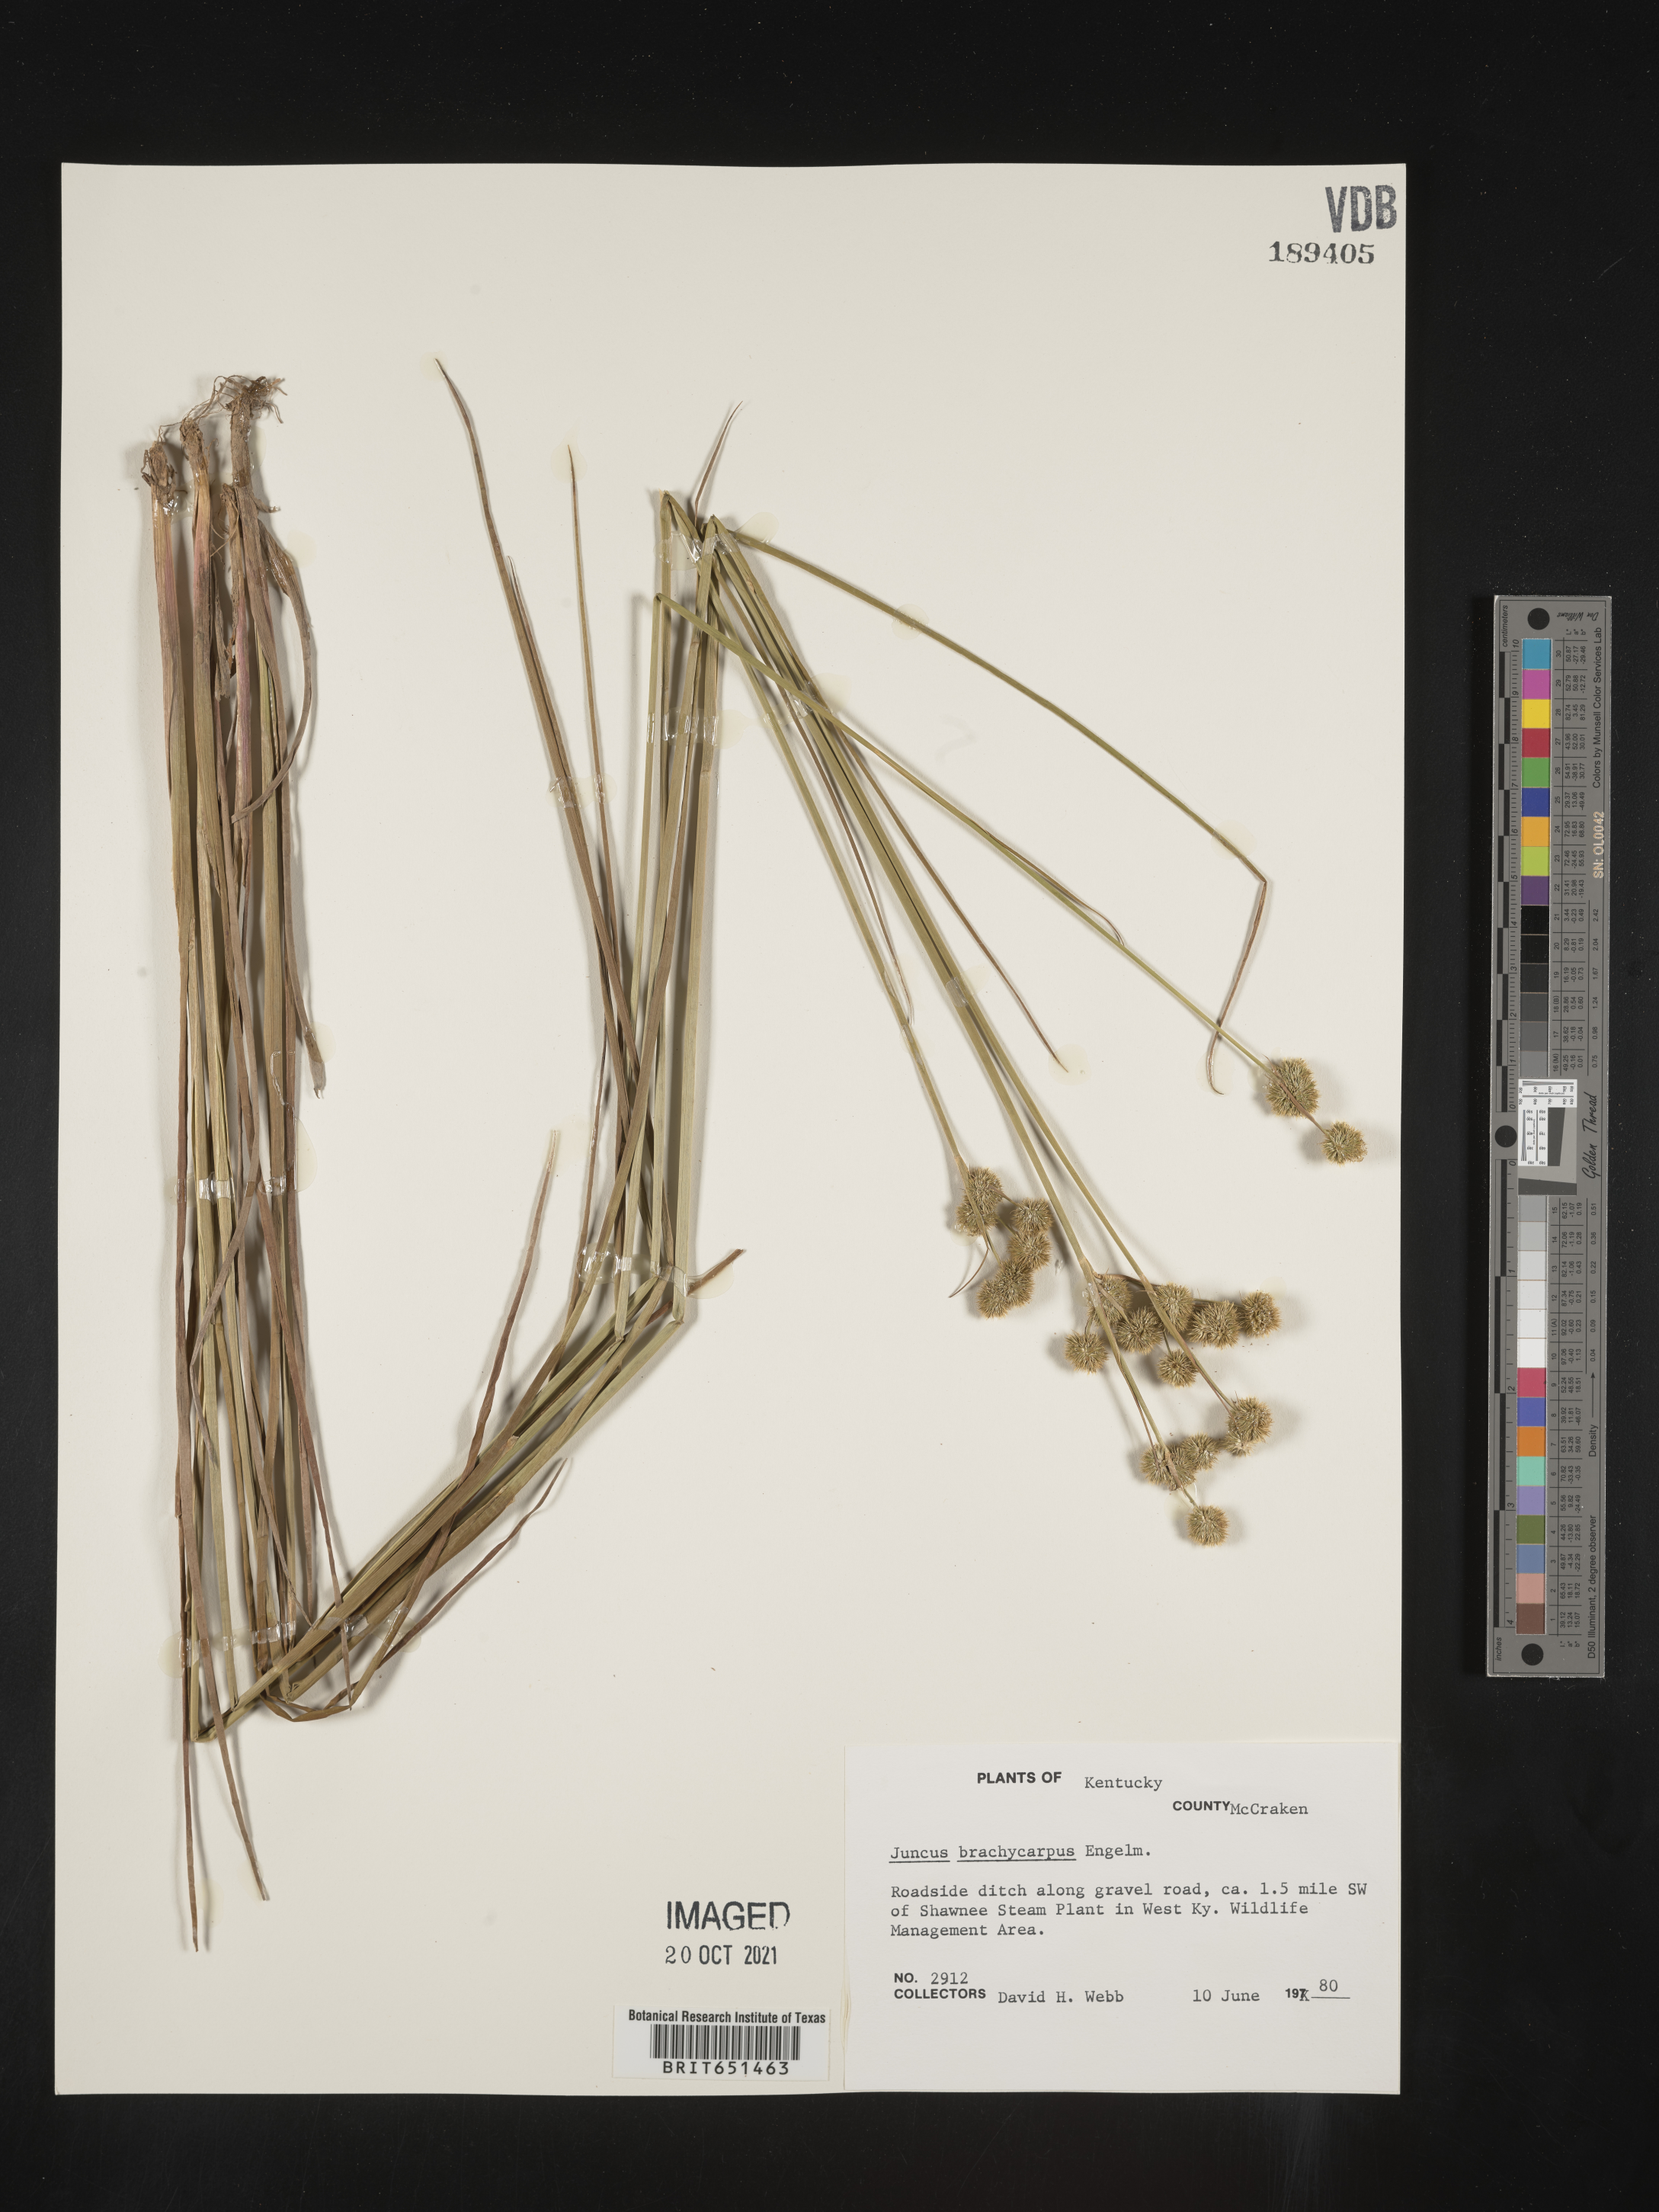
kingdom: Plantae
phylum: Tracheophyta
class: Liliopsida
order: Poales
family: Juncaceae
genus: Juncus
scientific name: Juncus brachycarpus
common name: Shore rush
